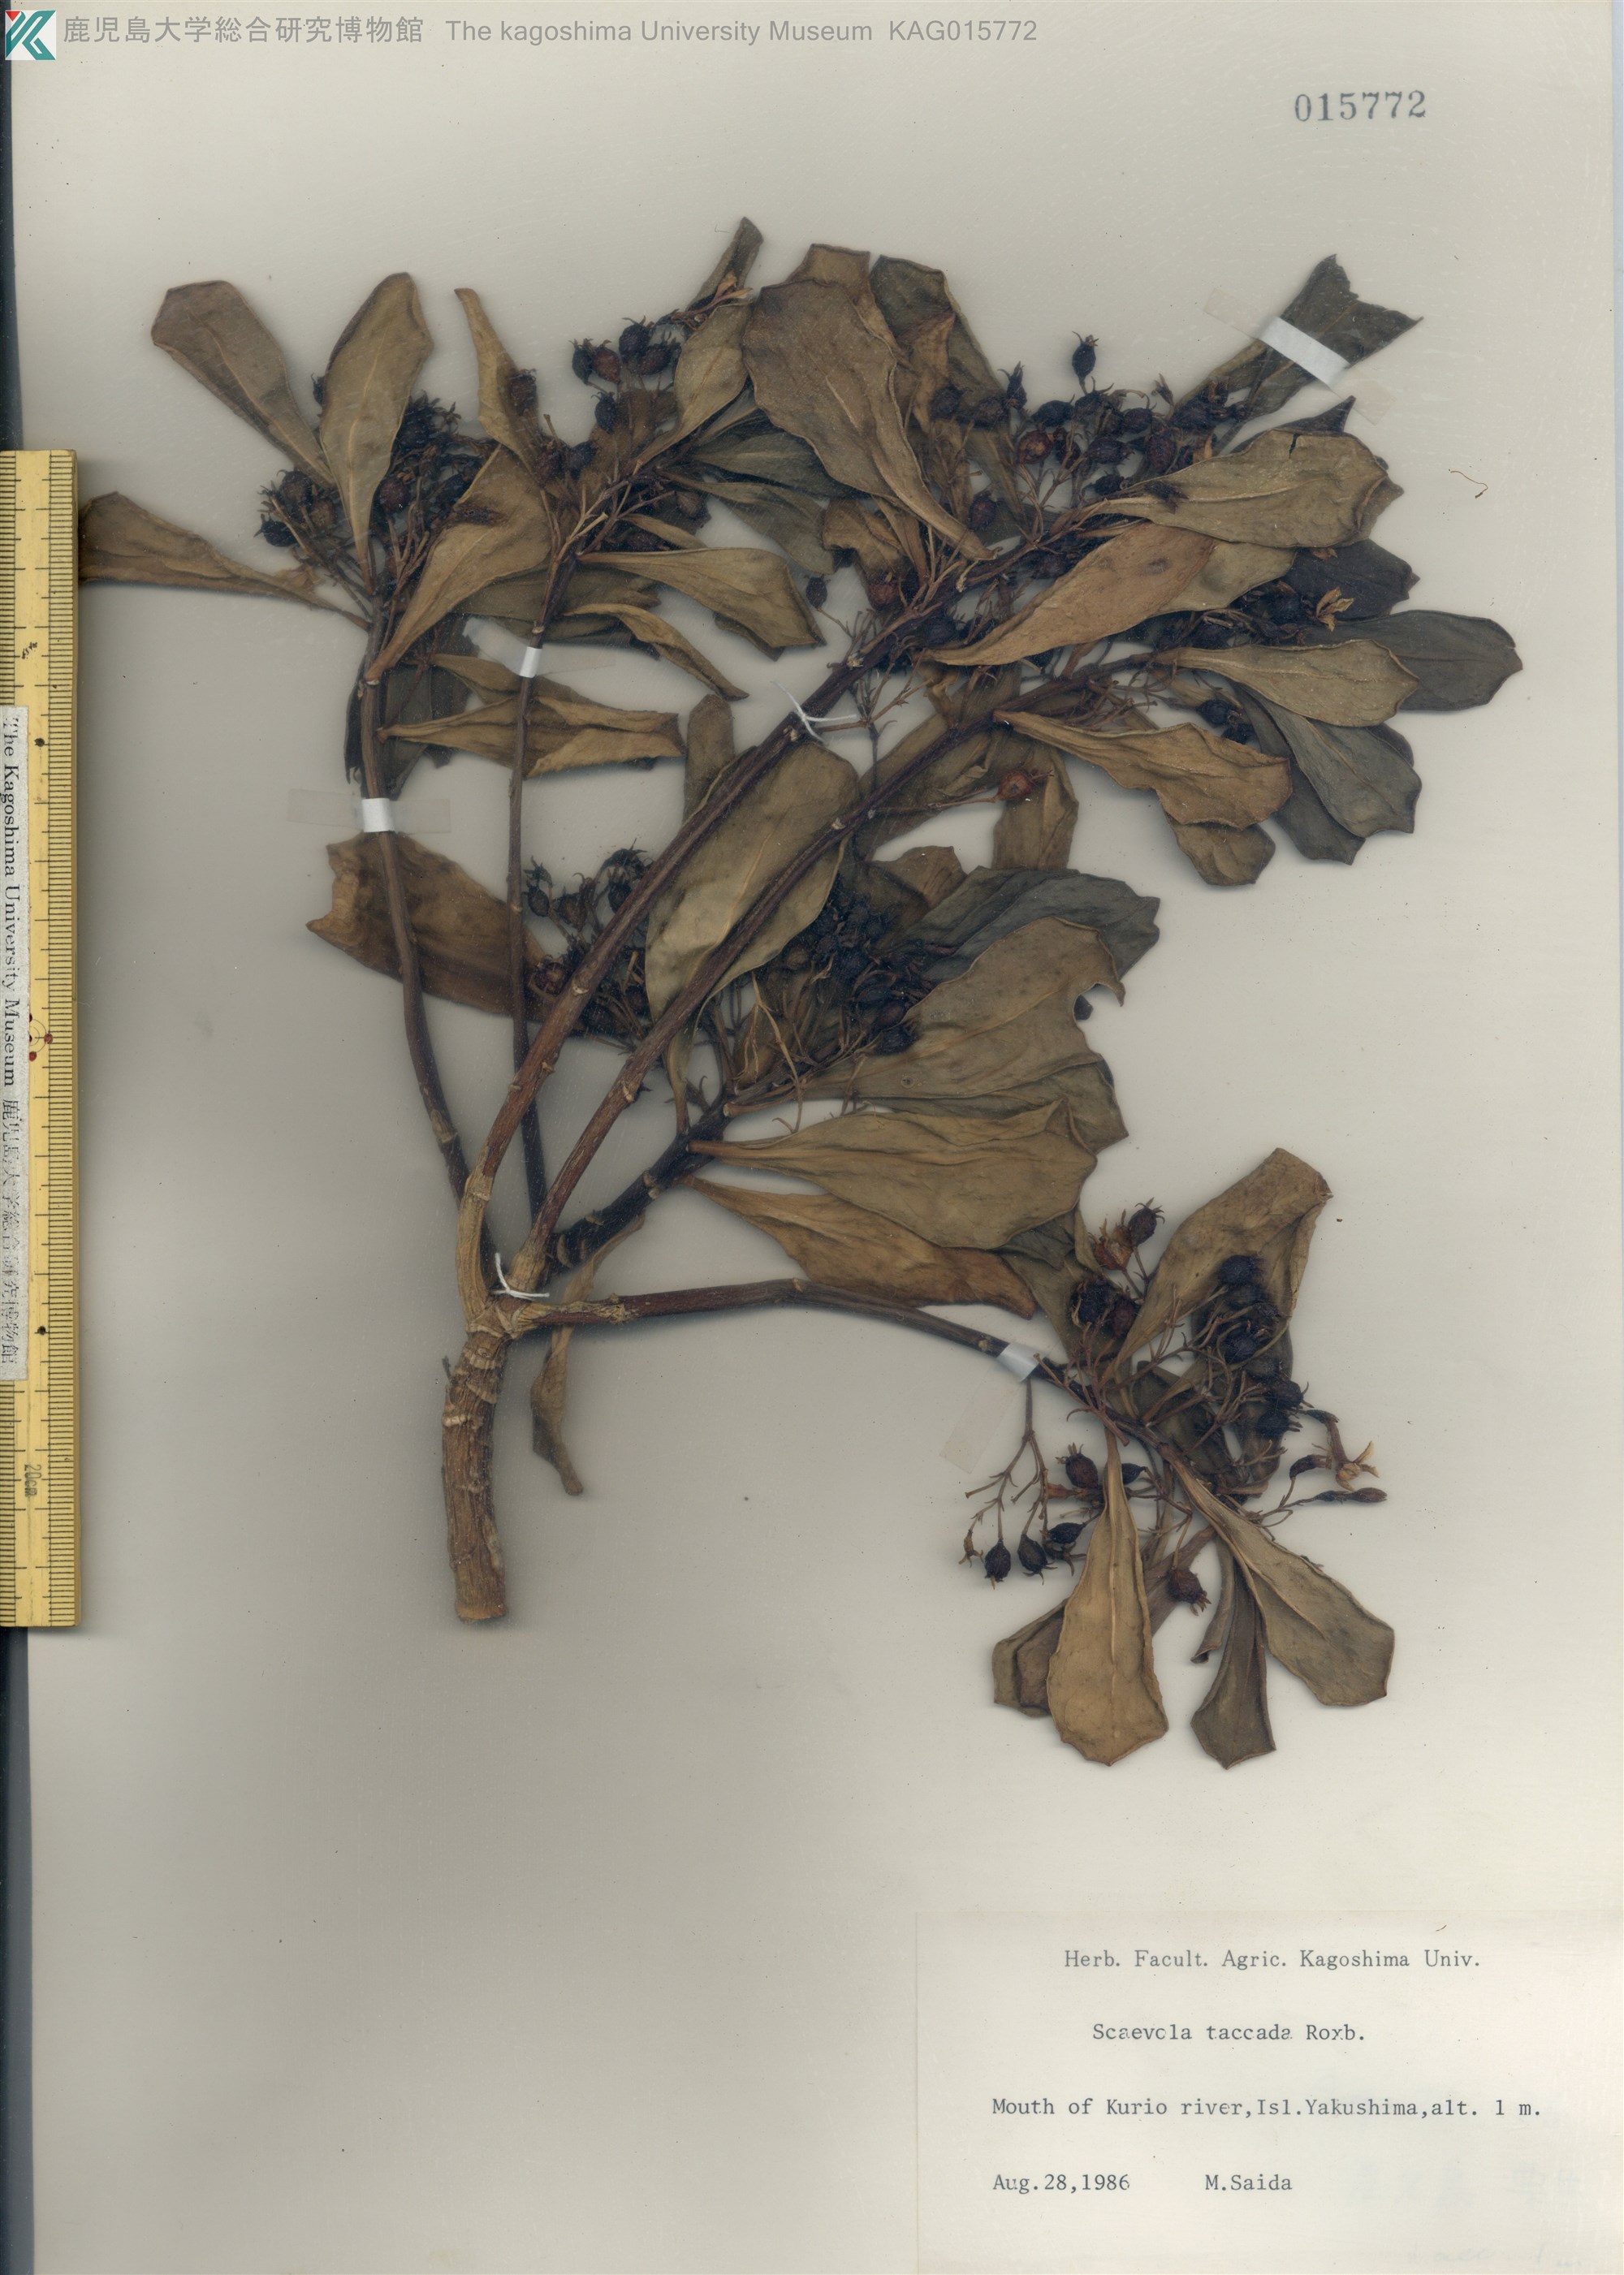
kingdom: Plantae
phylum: Tracheophyta
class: Magnoliopsida
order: Asterales
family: Goodeniaceae
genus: Scaevola
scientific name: Scaevola taccada
